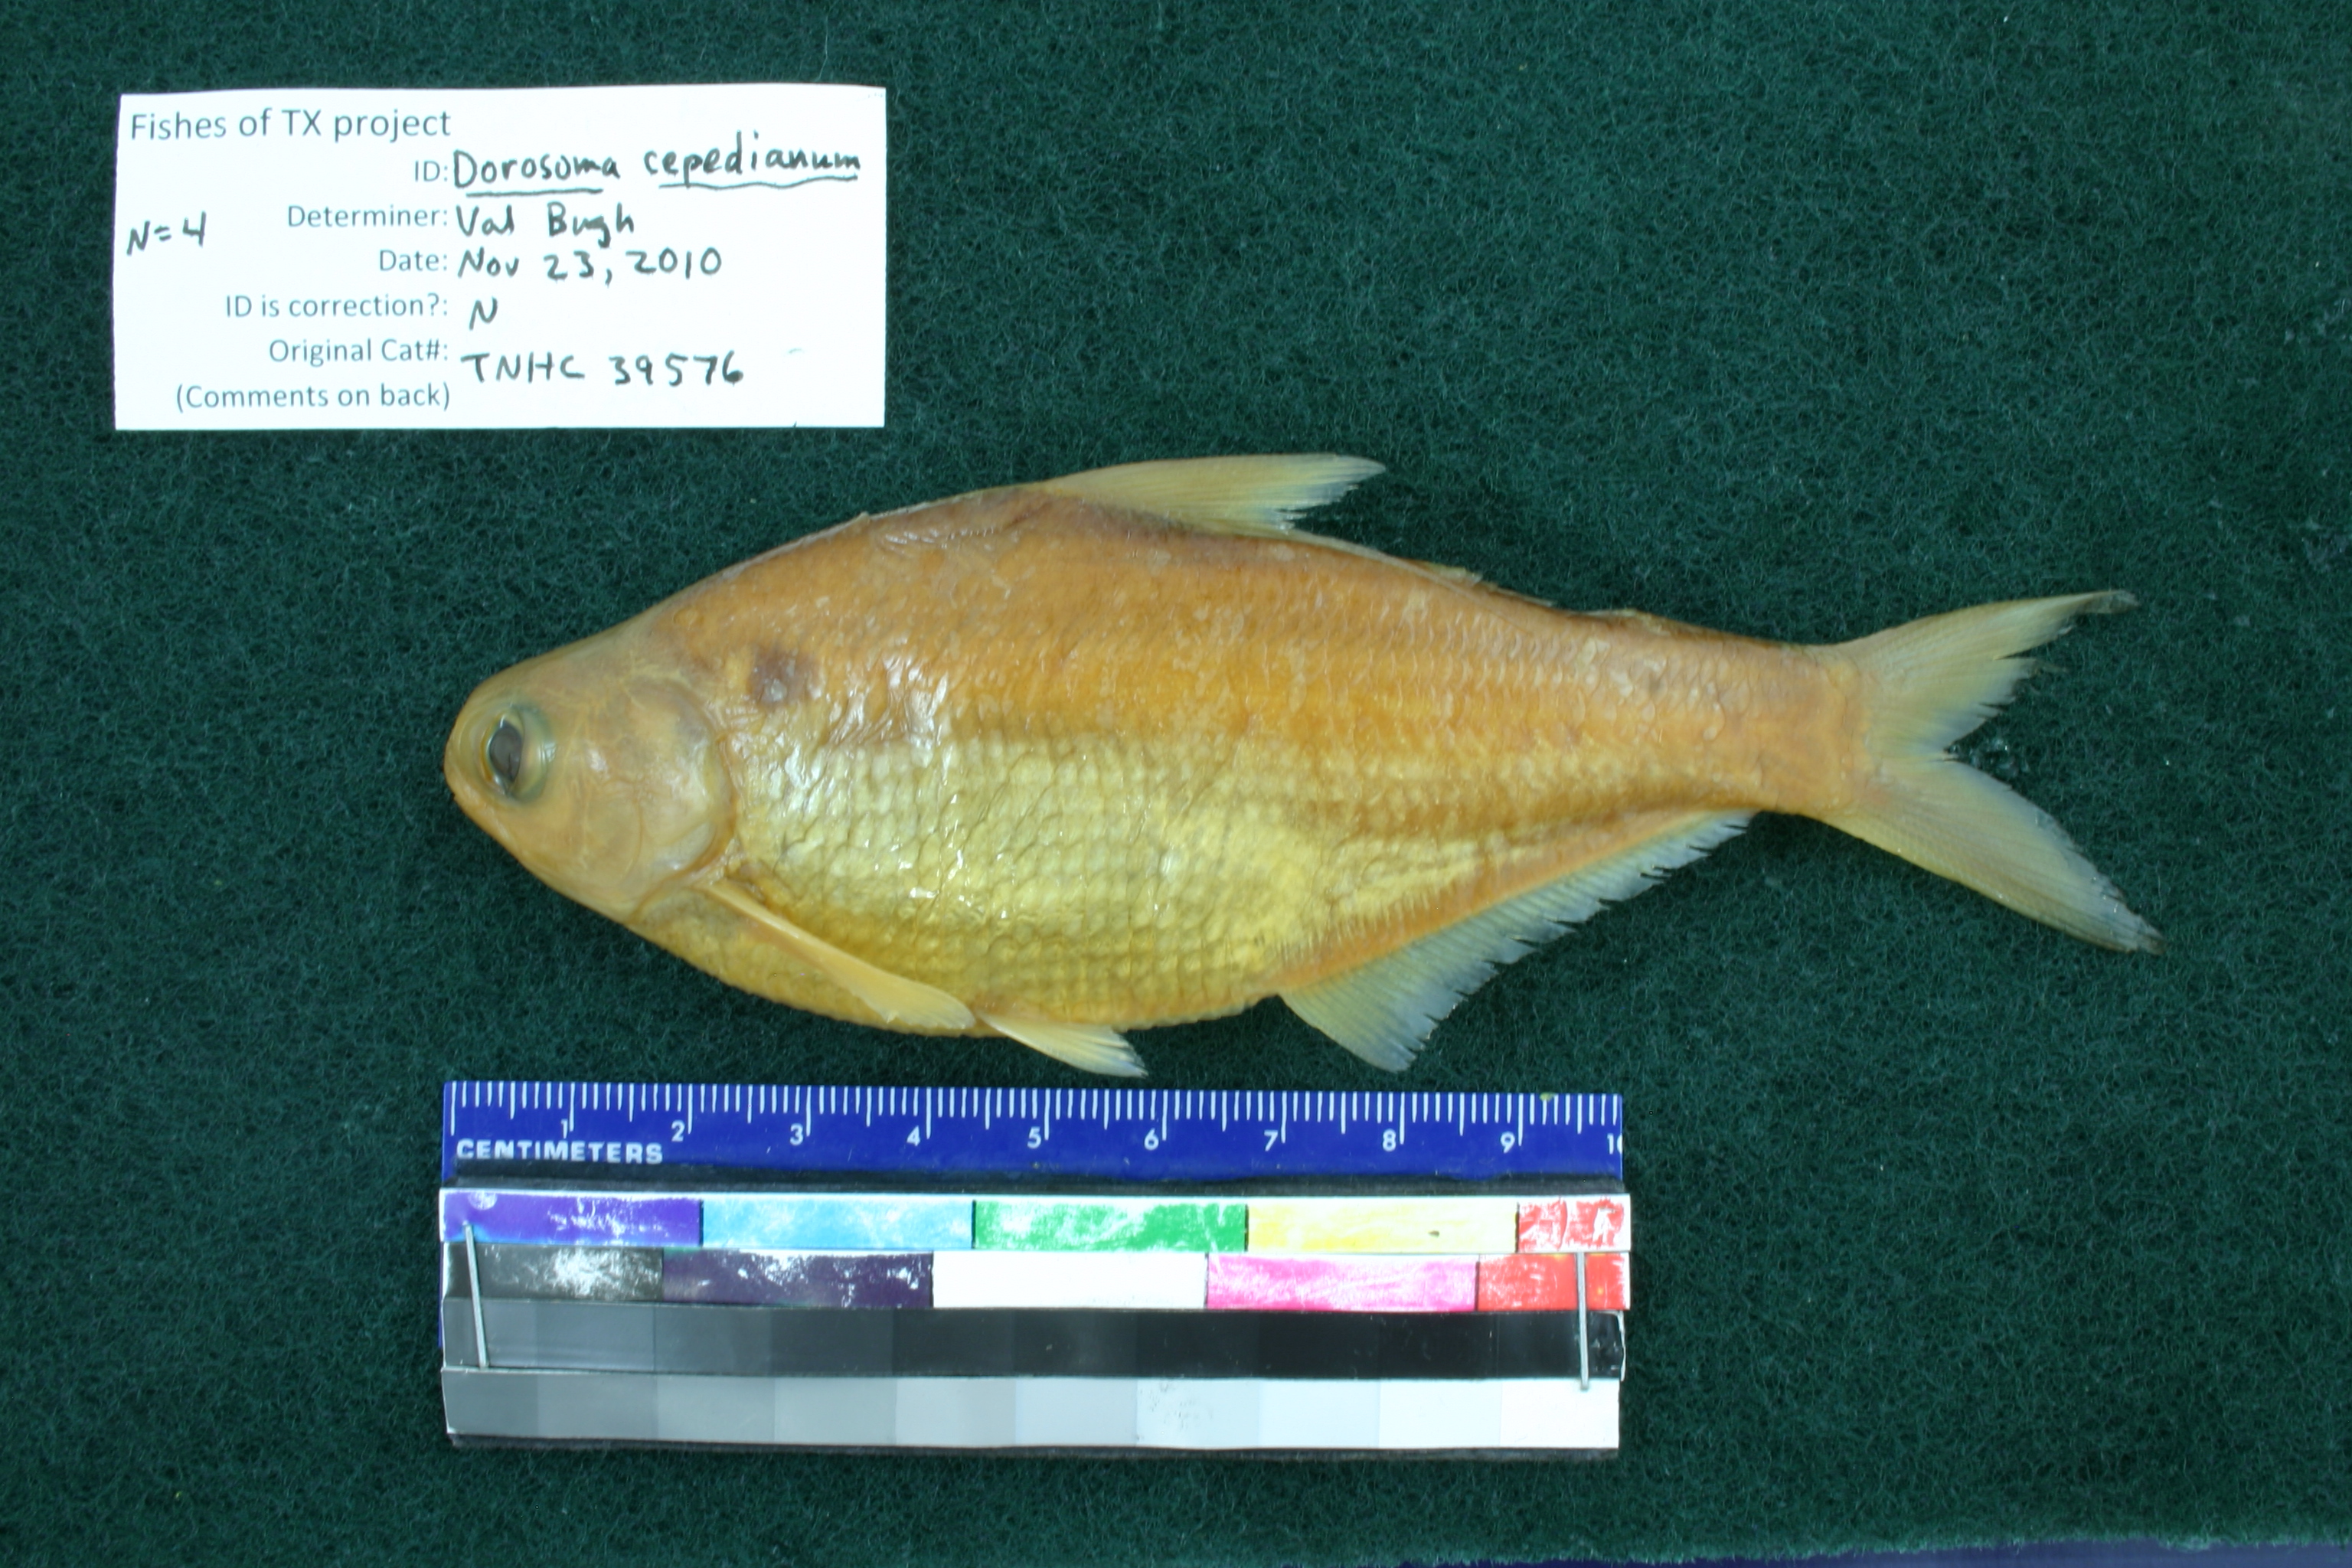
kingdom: Animalia
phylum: Chordata
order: Clupeiformes
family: Clupeidae
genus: Dorosoma
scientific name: Dorosoma cepedianum
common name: Gizzard shad
